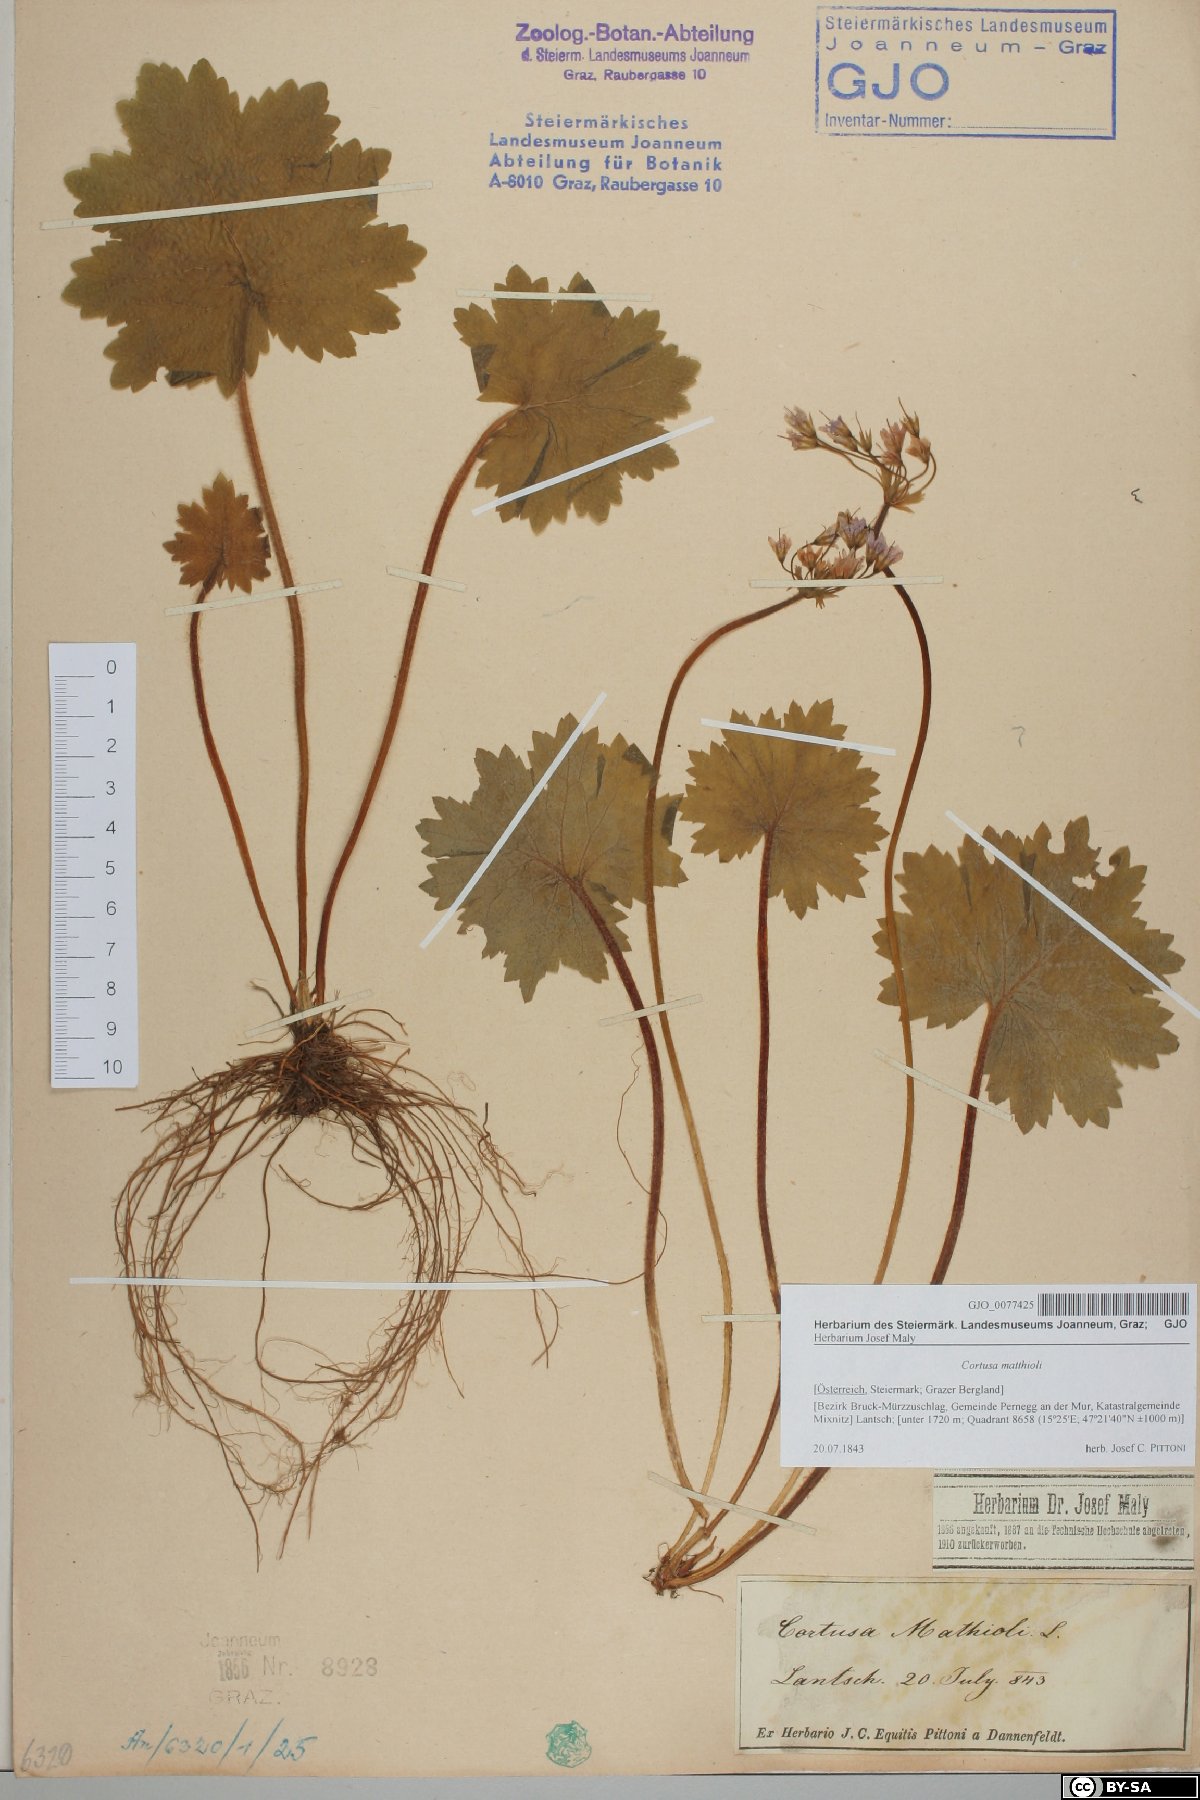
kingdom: Plantae
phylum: Tracheophyta
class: Magnoliopsida
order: Ericales
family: Primulaceae
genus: Primula
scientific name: Primula matthioli
